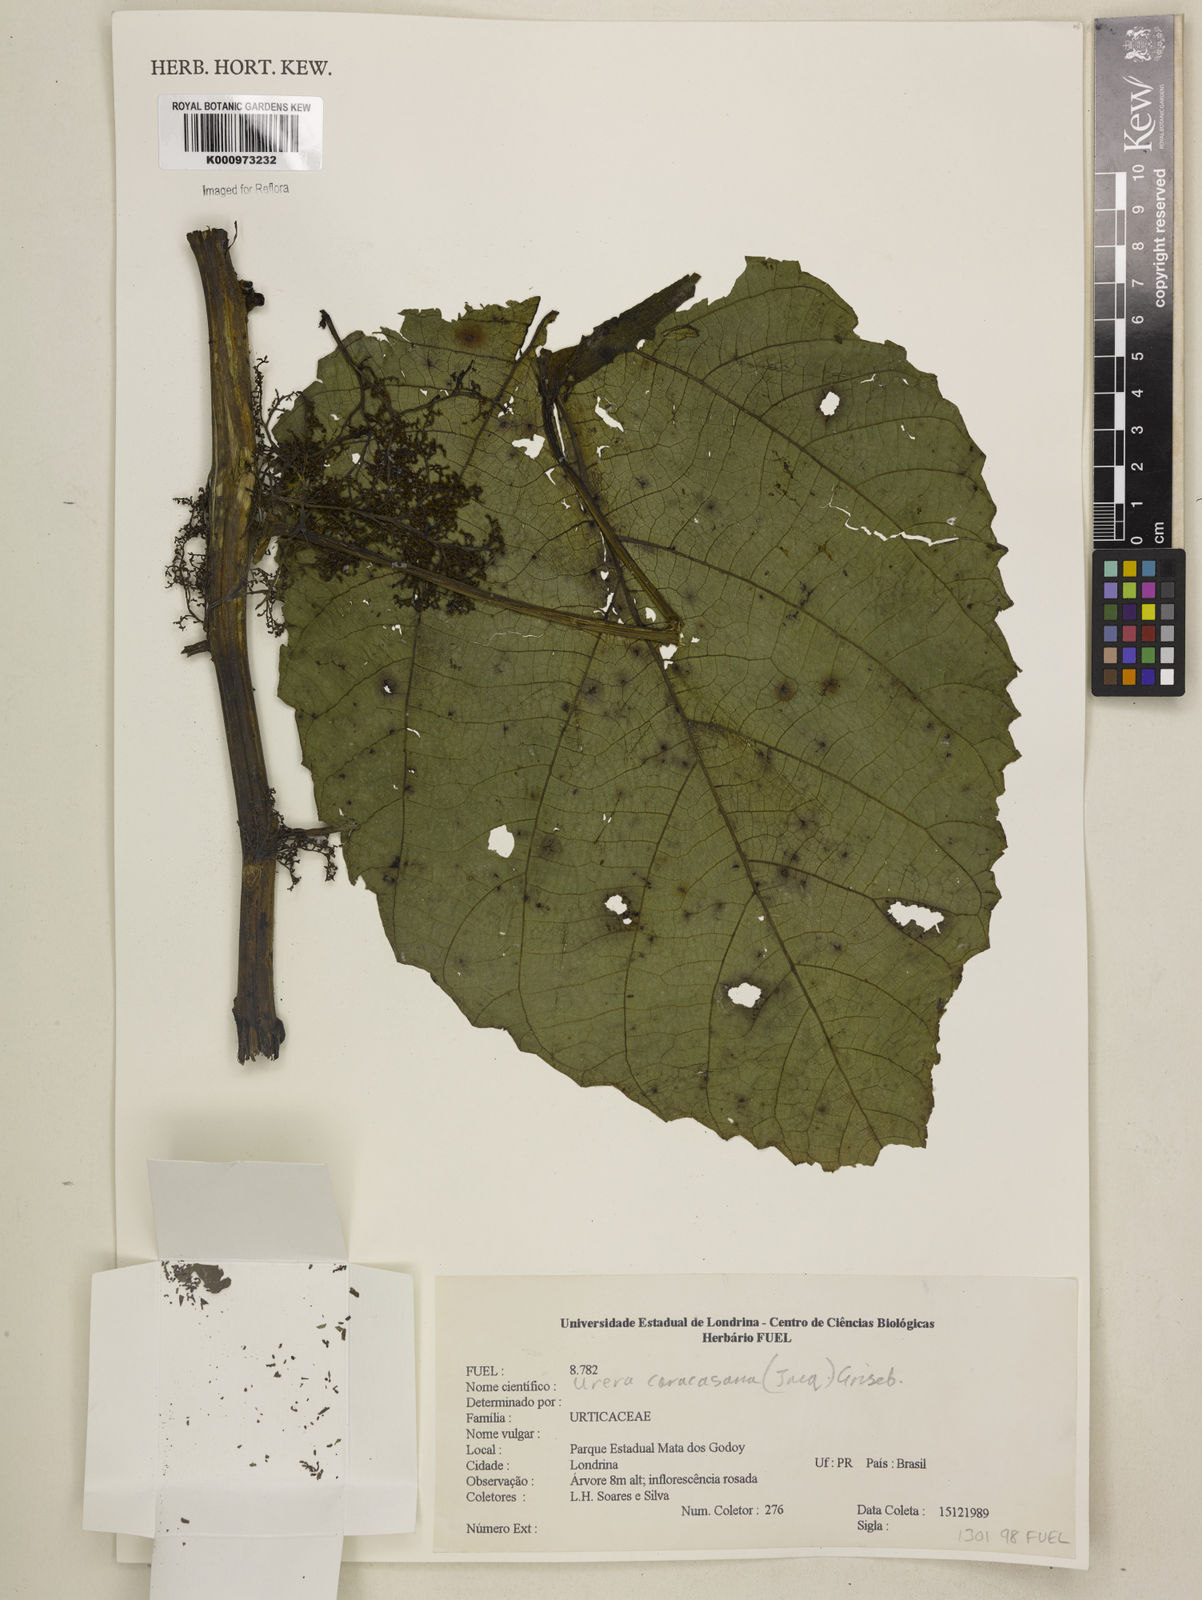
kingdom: Plantae
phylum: Tracheophyta
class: Magnoliopsida
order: Rosales
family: Urticaceae
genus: Urera
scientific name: Urera caracasana
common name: Flameberry
